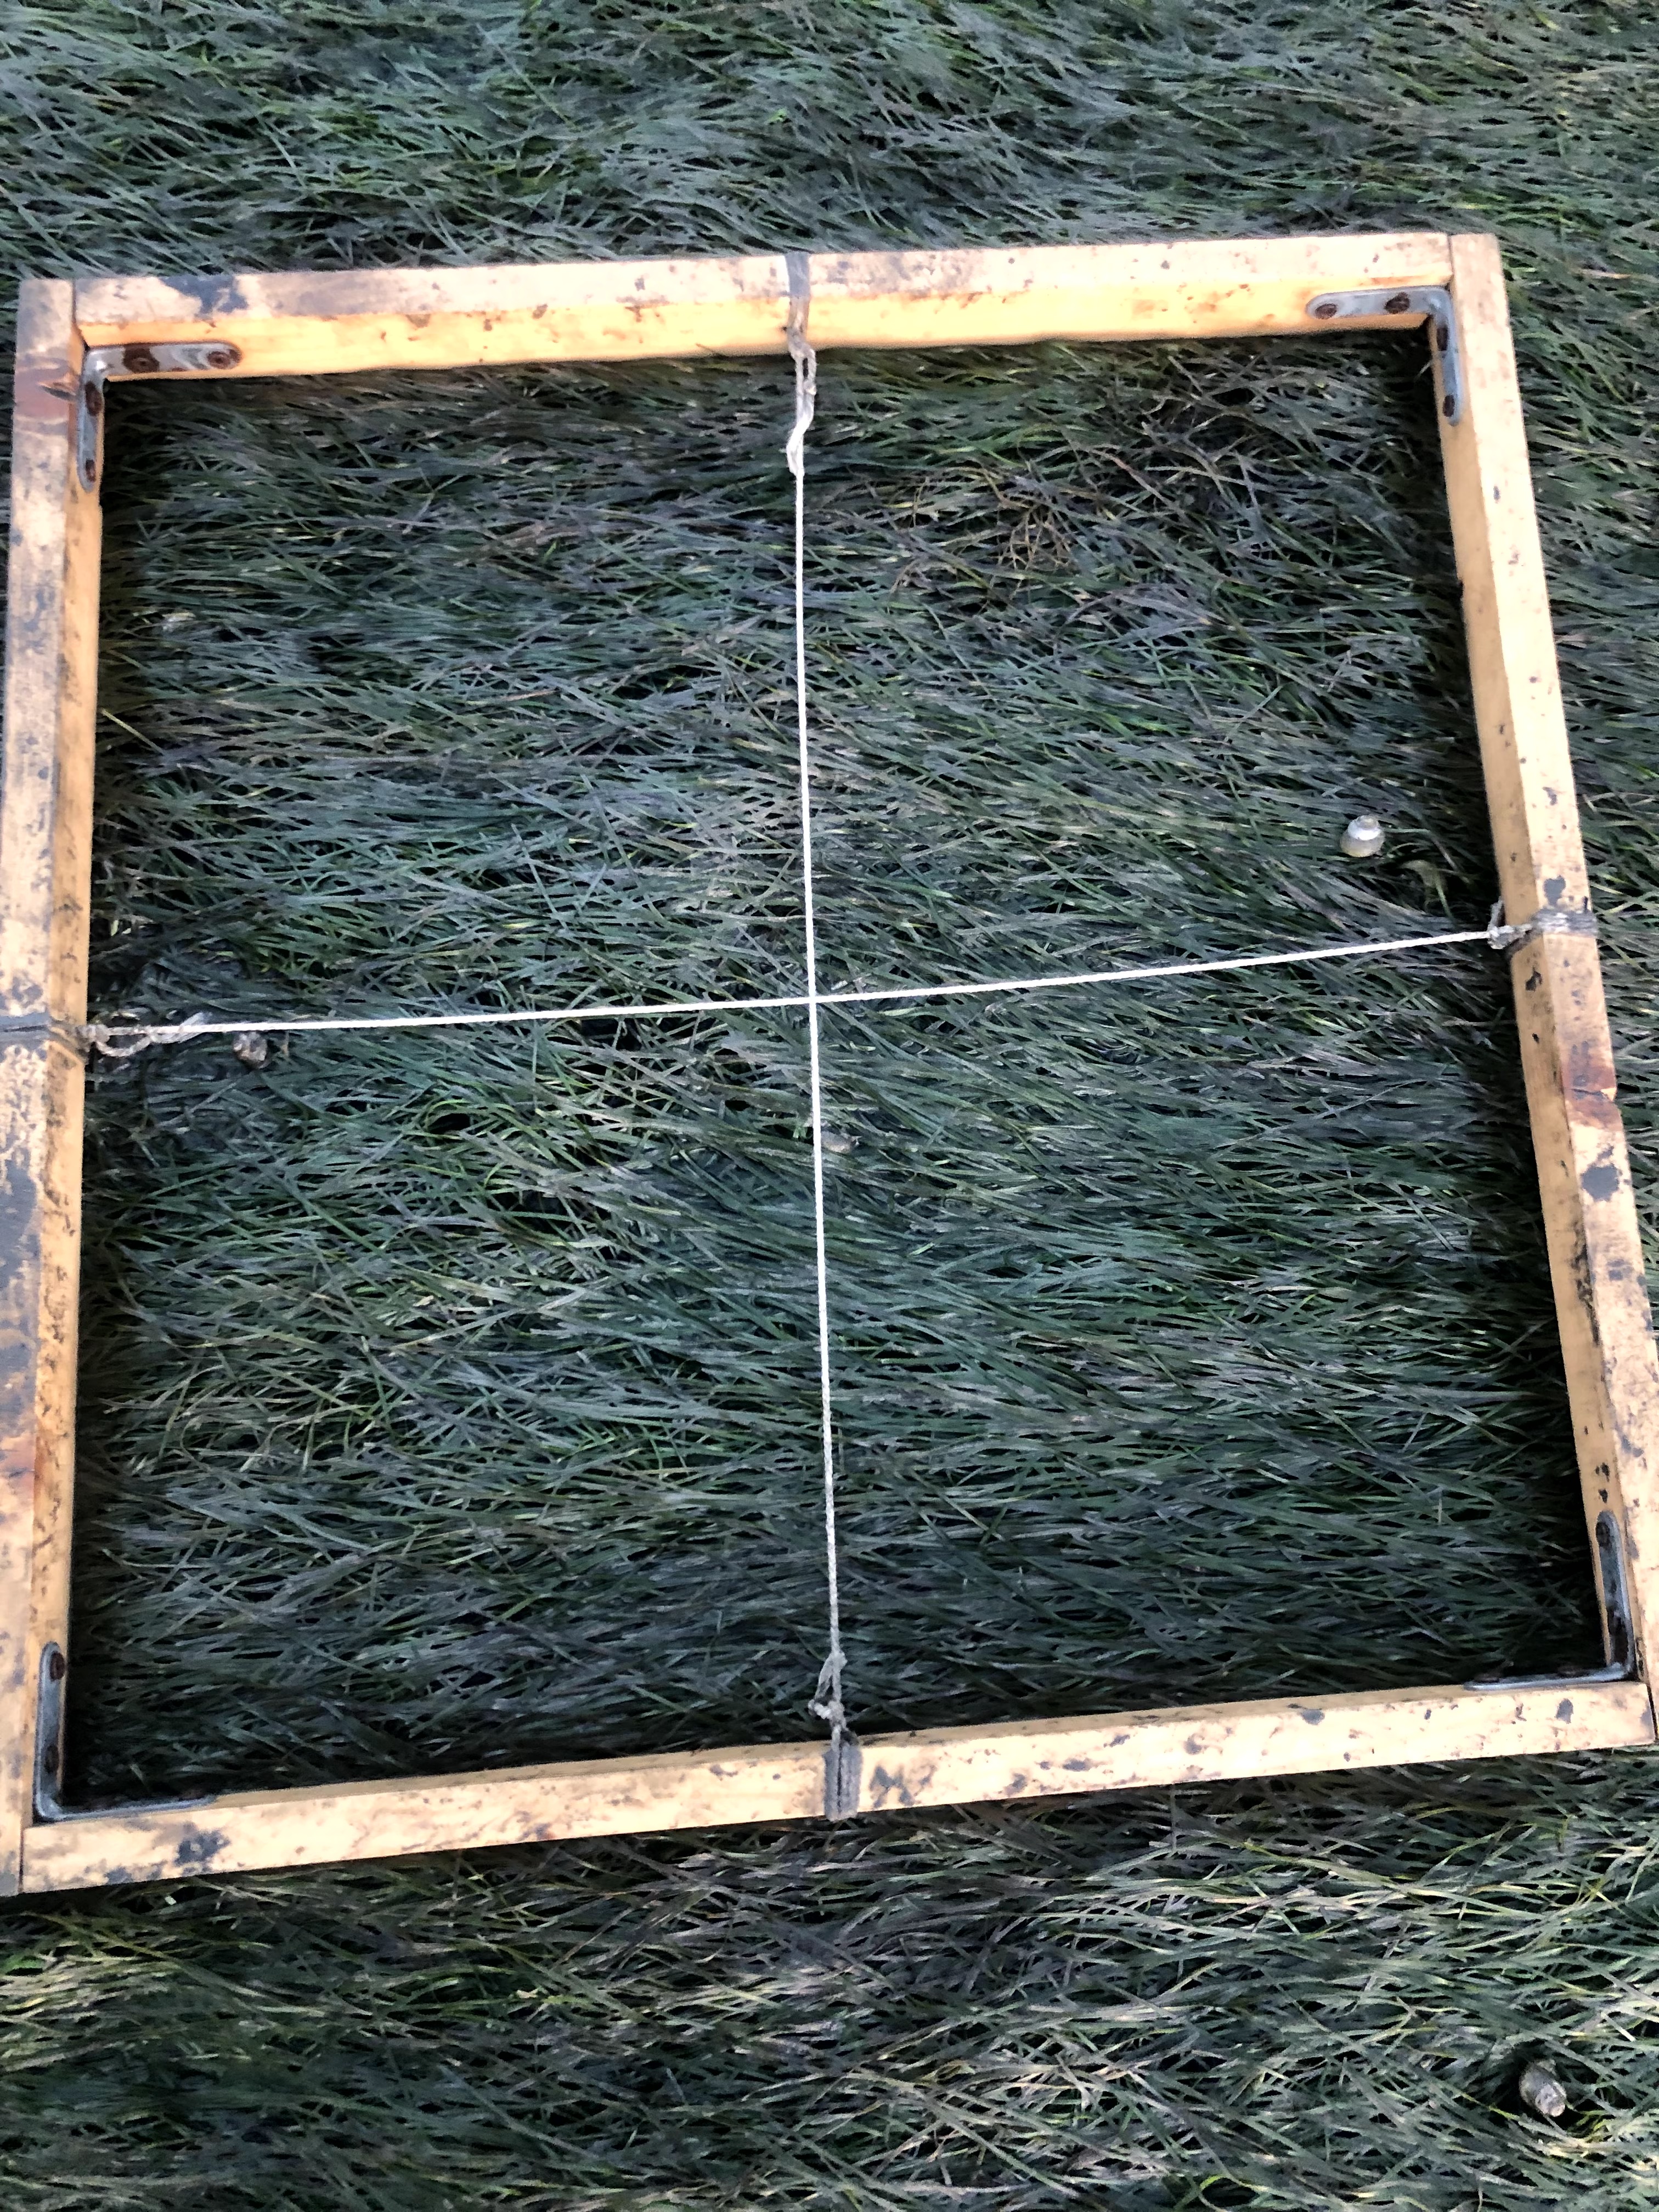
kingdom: Plantae
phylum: Tracheophyta
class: Liliopsida
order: Alismatales
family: Zosteraceae
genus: Zostera
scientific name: Zostera noltii
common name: Dwarf eelgrass
